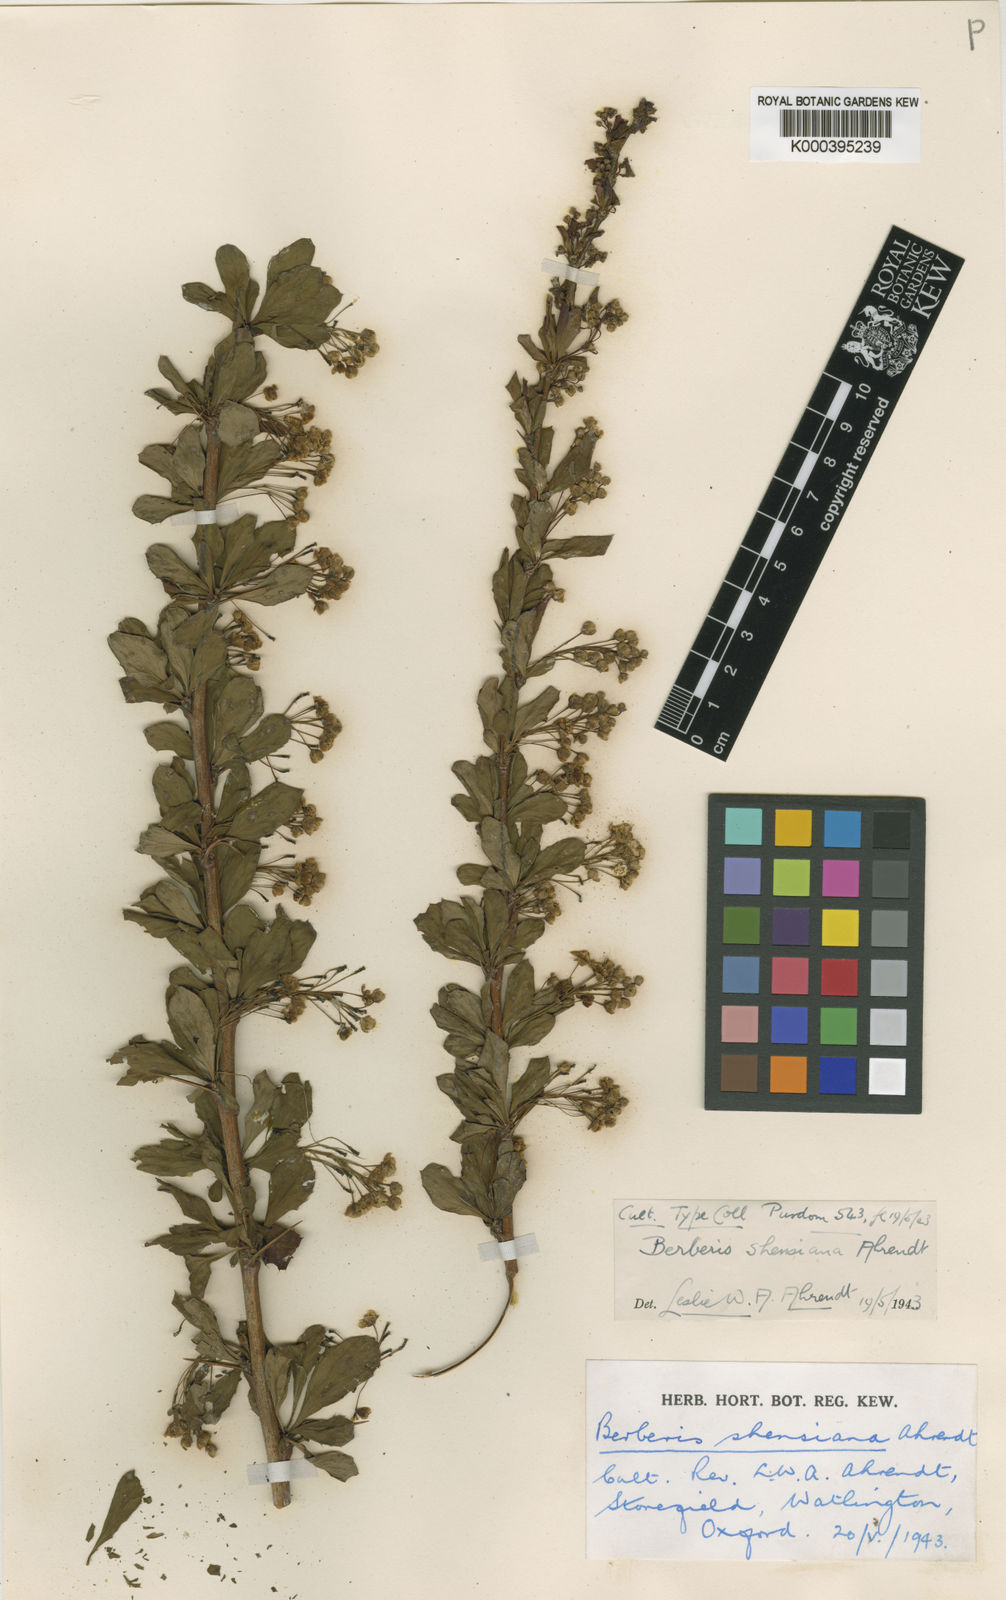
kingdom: Plantae
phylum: Tracheophyta
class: Magnoliopsida
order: Ranunculales
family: Berberidaceae
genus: Berberis
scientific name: Berberis shensiana
